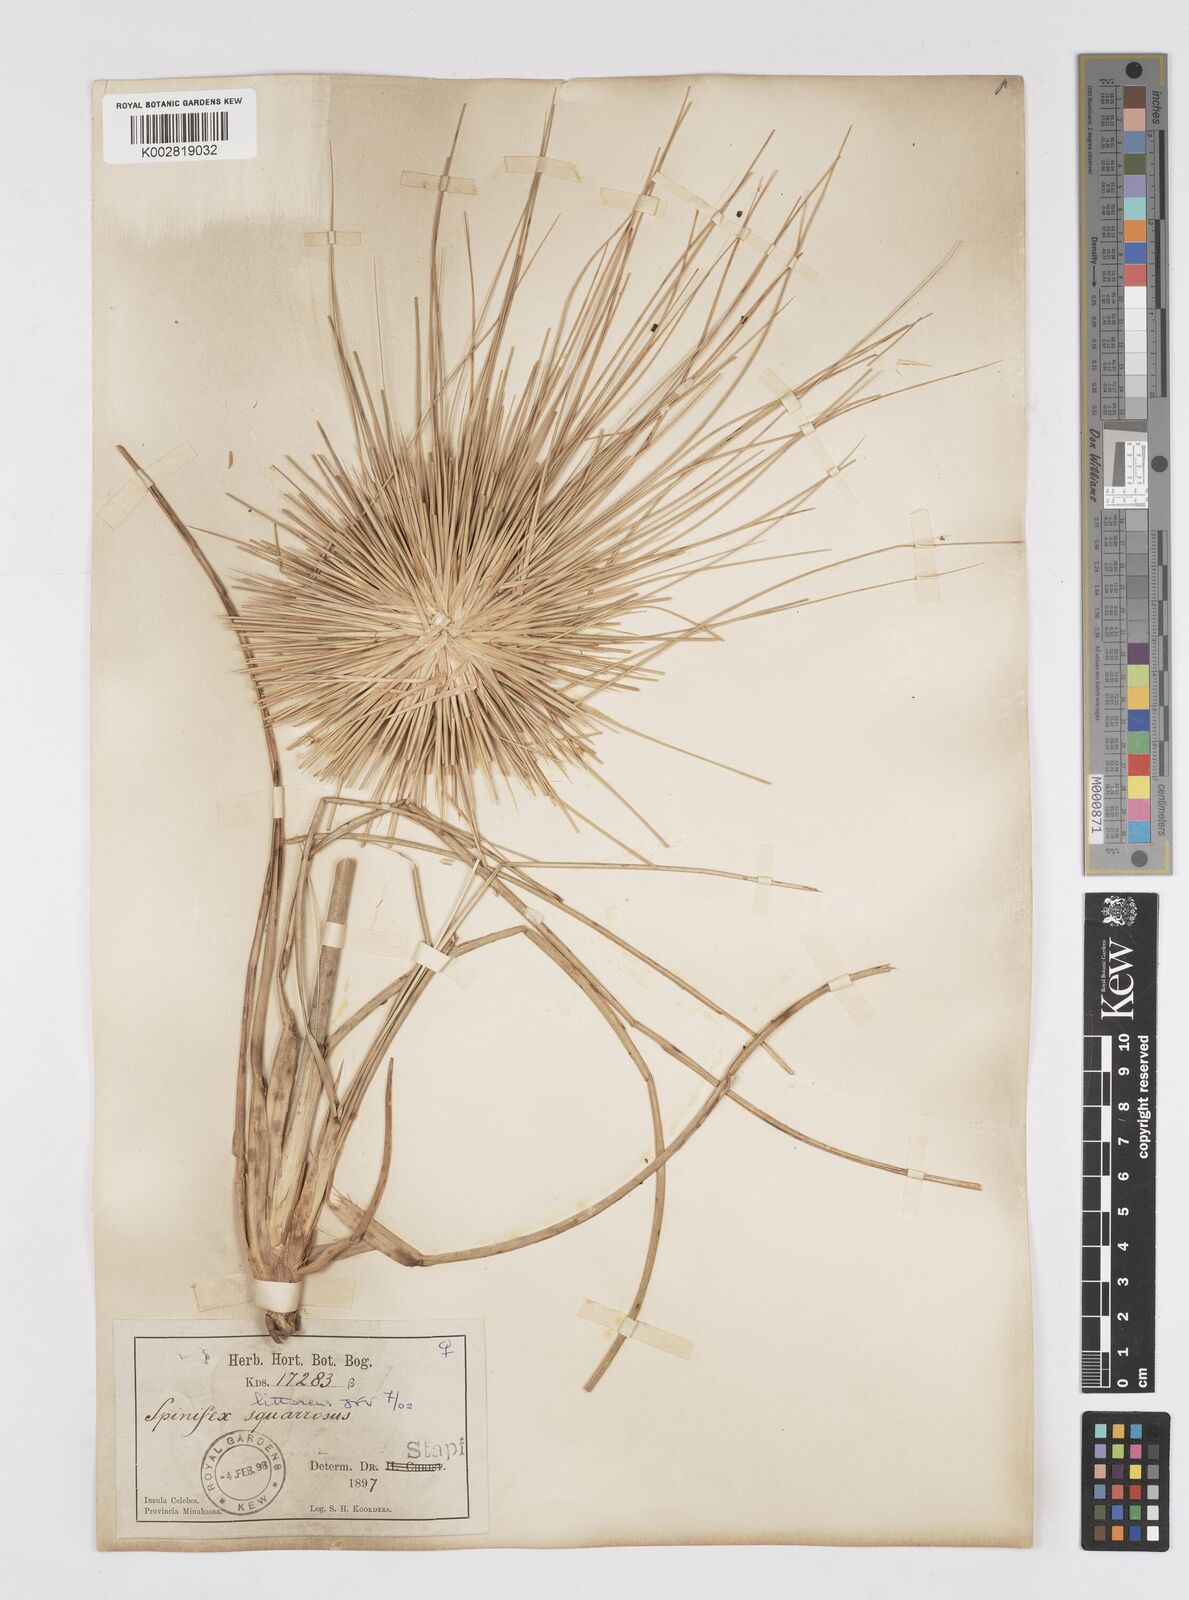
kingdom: Plantae
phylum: Tracheophyta
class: Liliopsida
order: Poales
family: Poaceae
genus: Spinifex
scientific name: Spinifex littoreus
